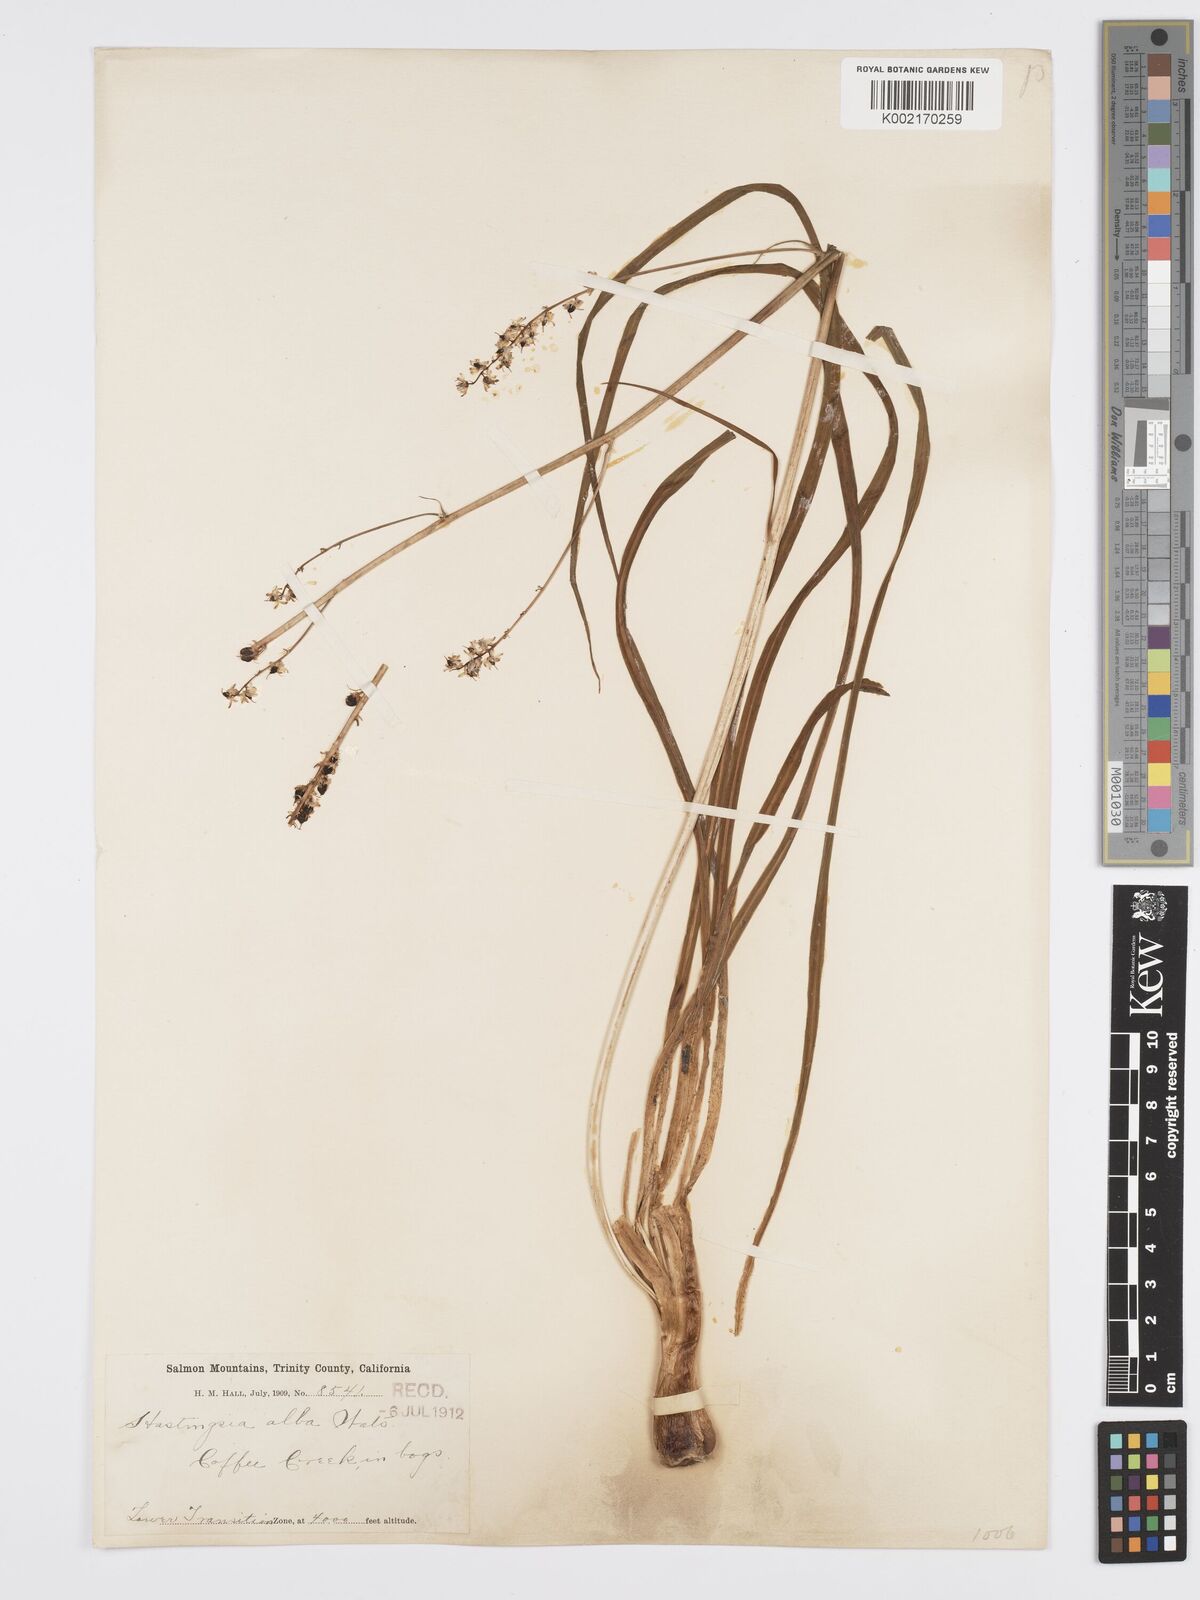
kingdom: Plantae
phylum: Tracheophyta
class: Liliopsida
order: Asparagales
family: Asparagaceae
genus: Hastingsia
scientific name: Hastingsia alba
